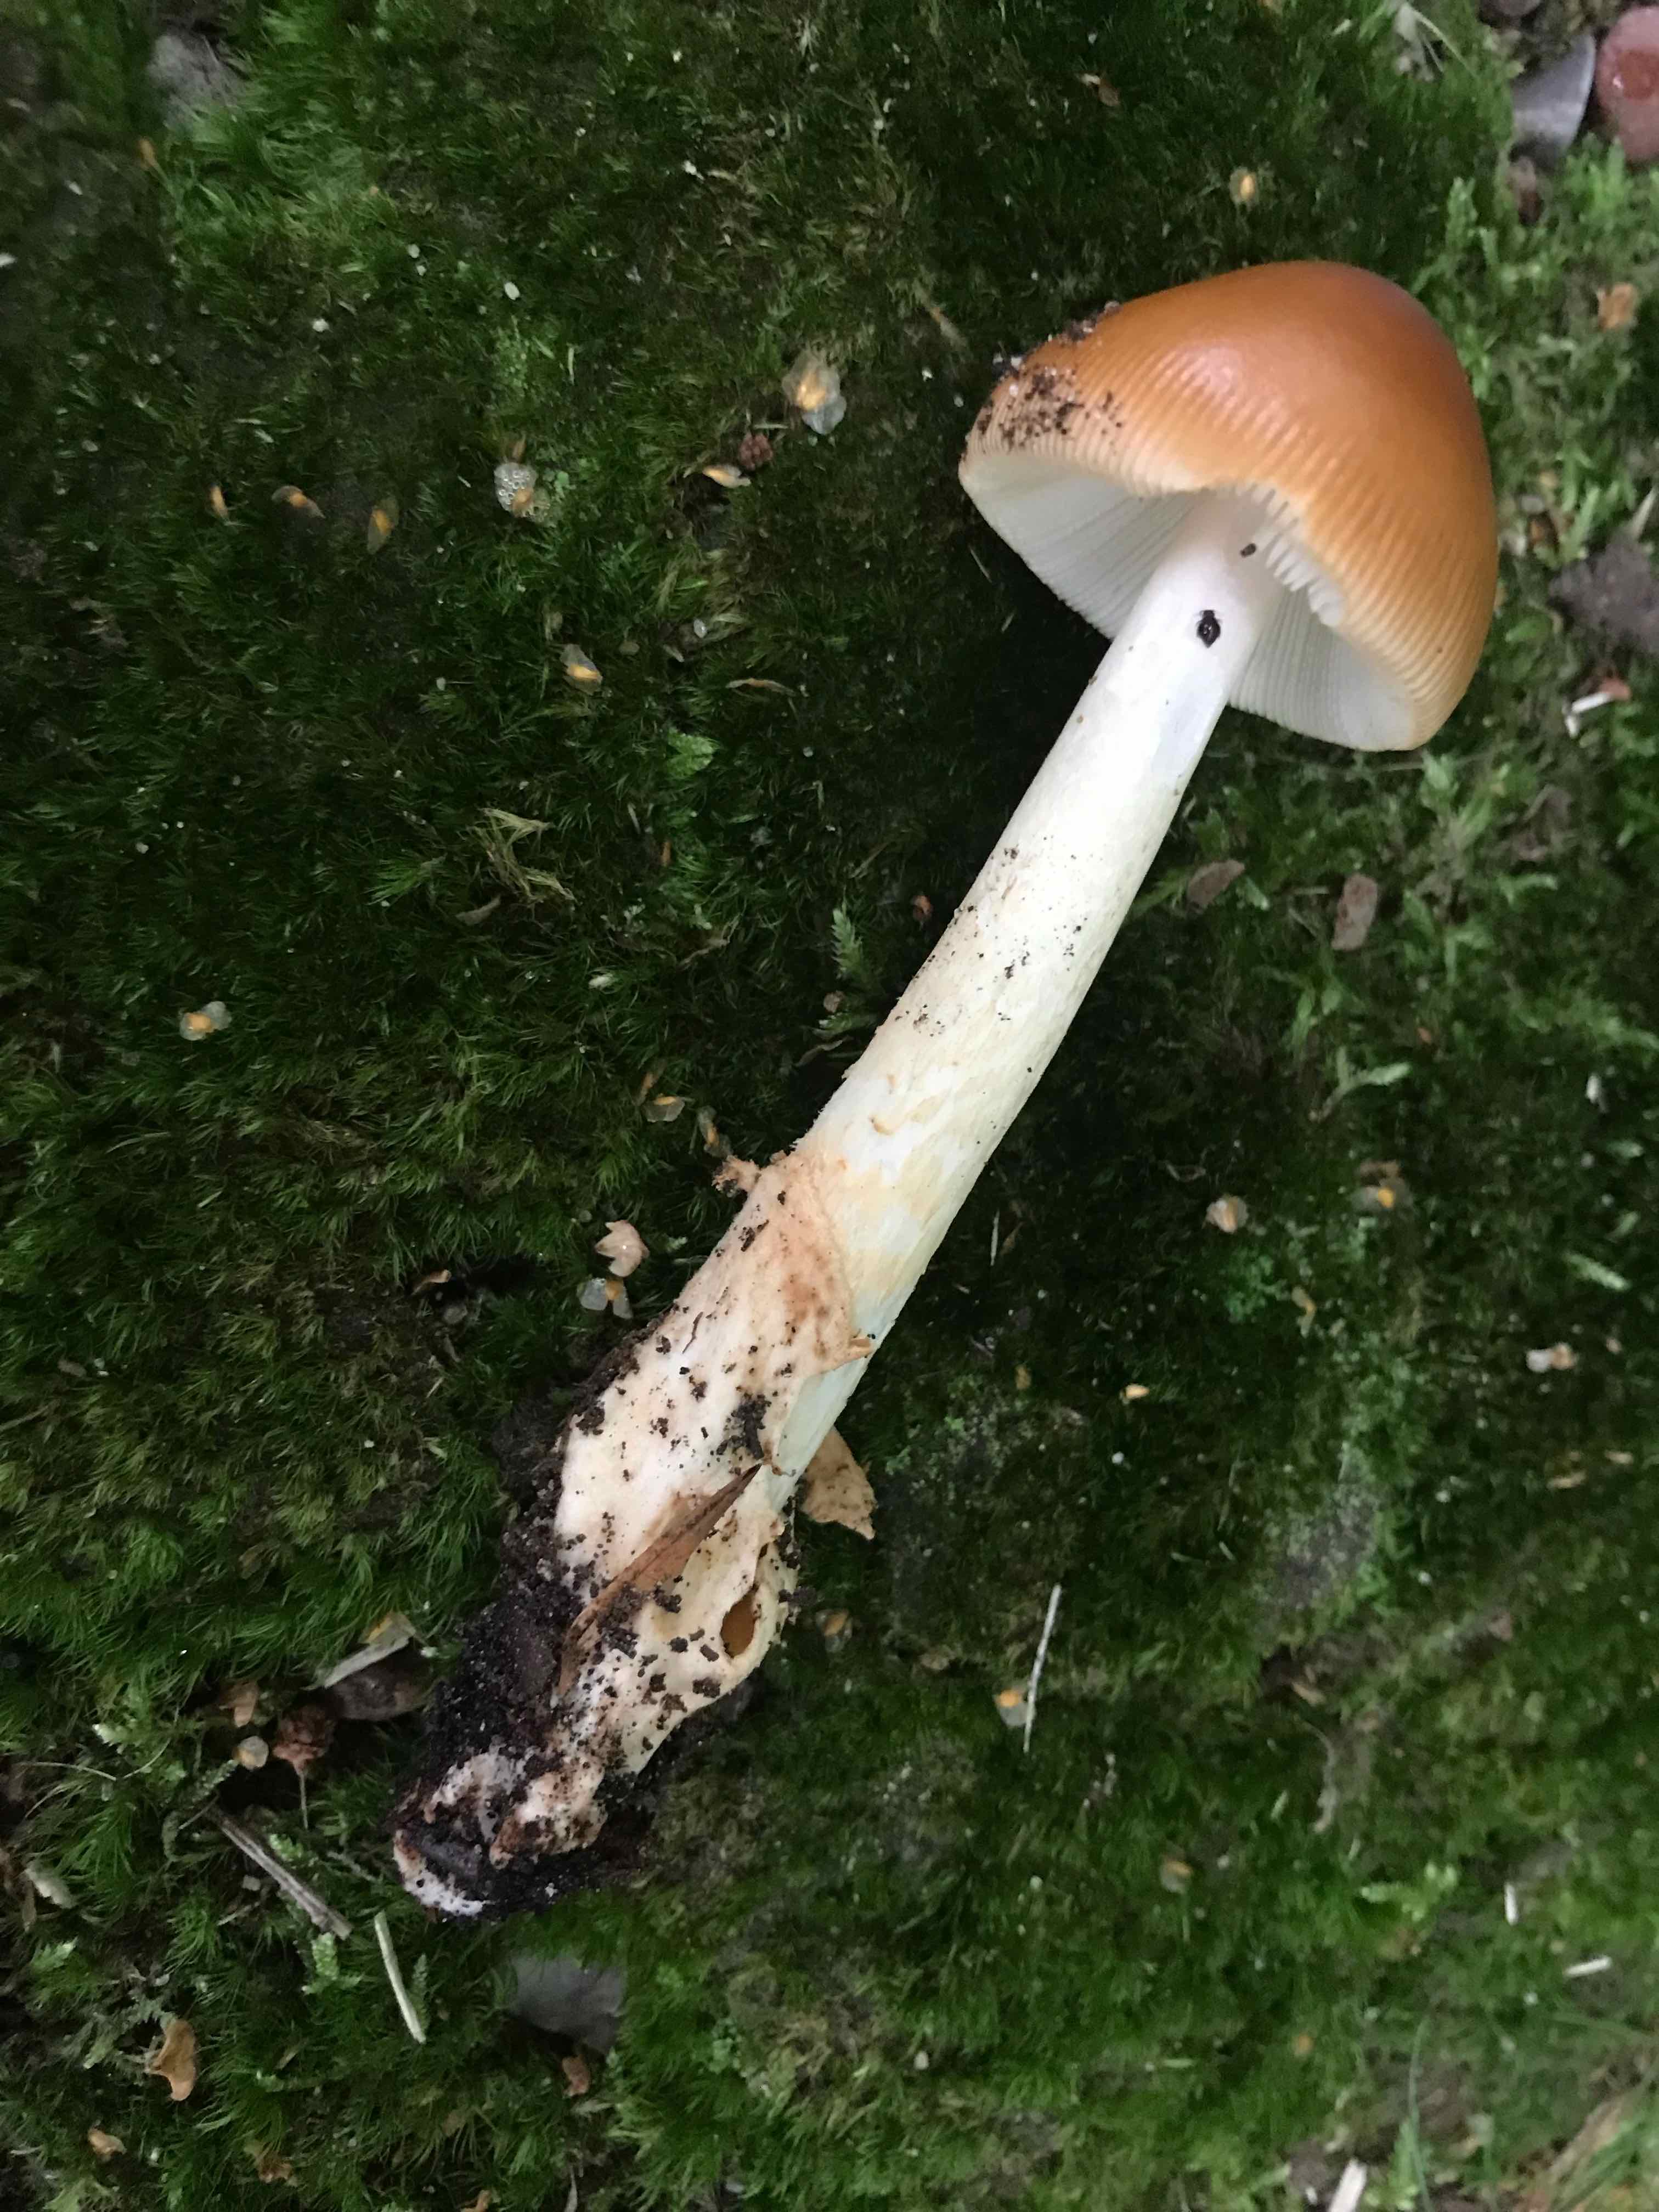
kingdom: Fungi
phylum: Basidiomycota
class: Agaricomycetes
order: Agaricales
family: Amanitaceae
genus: Amanita
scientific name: Amanita fulva
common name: brun kam-fluesvamp
